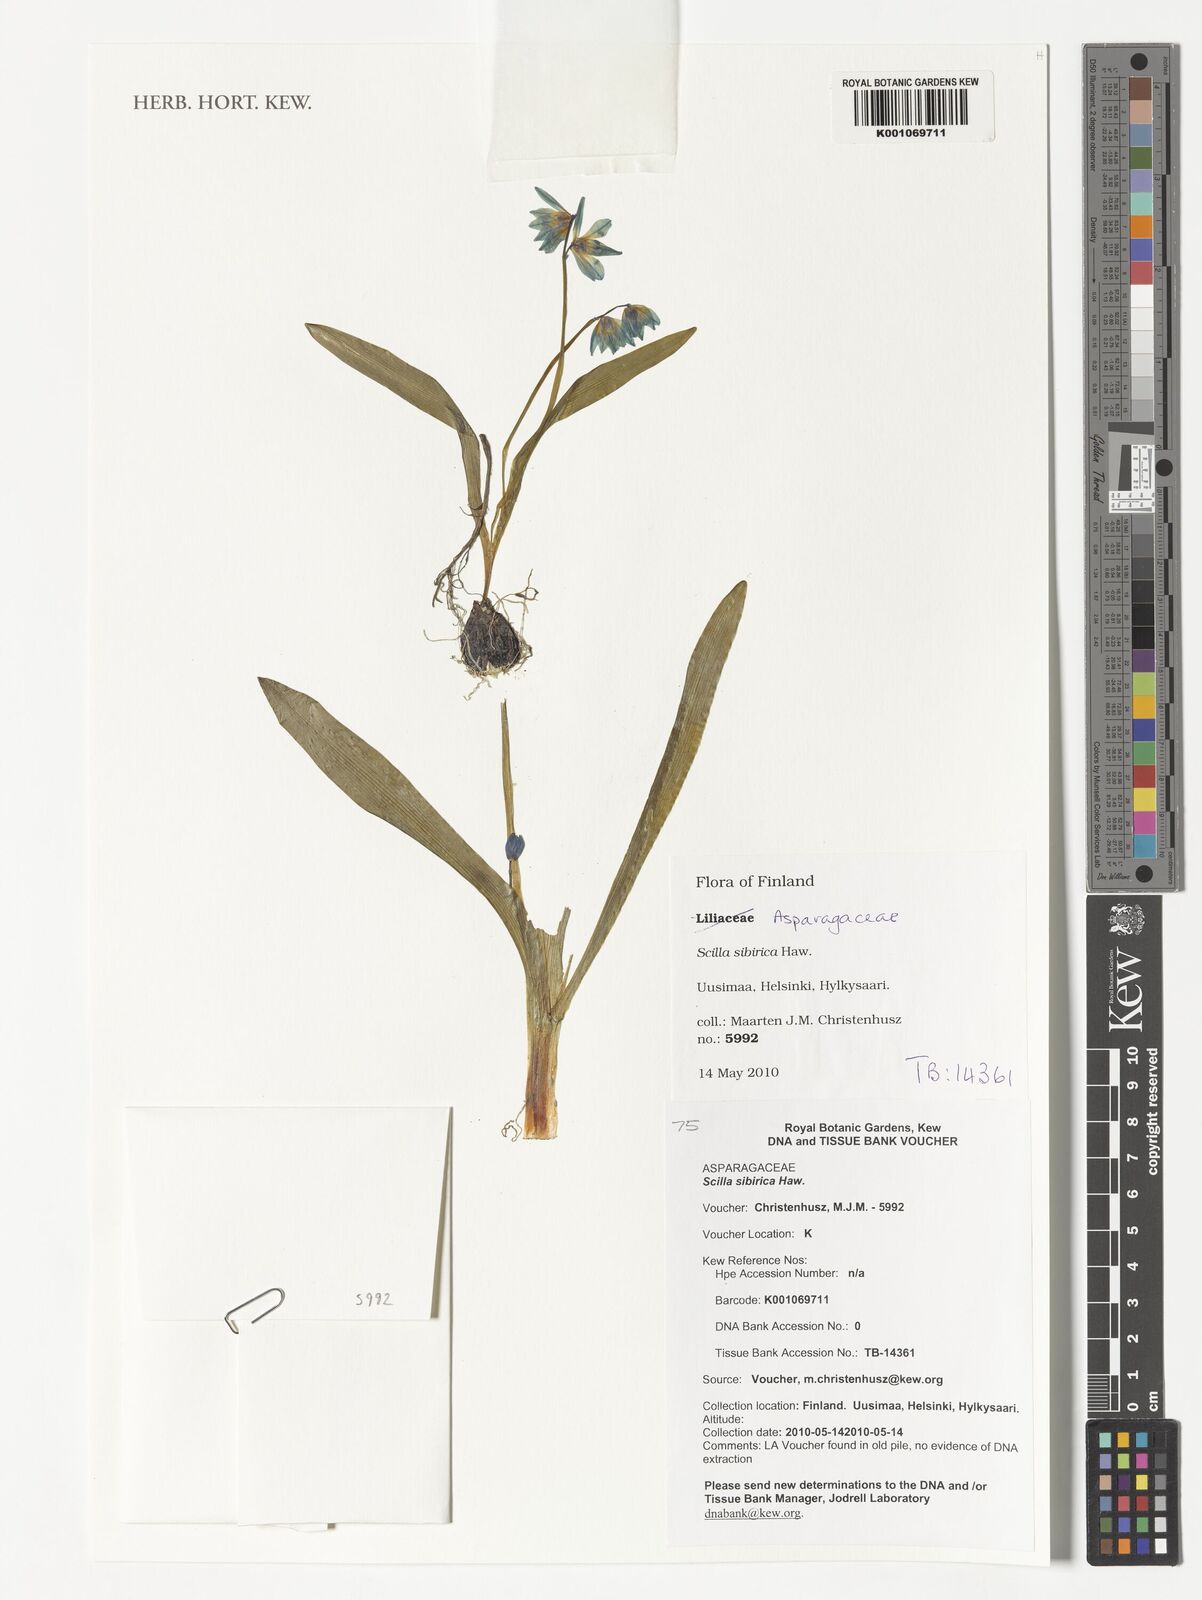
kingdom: Plantae
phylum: Tracheophyta
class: Liliopsida
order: Asparagales
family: Asparagaceae
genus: Scilla
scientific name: Scilla
